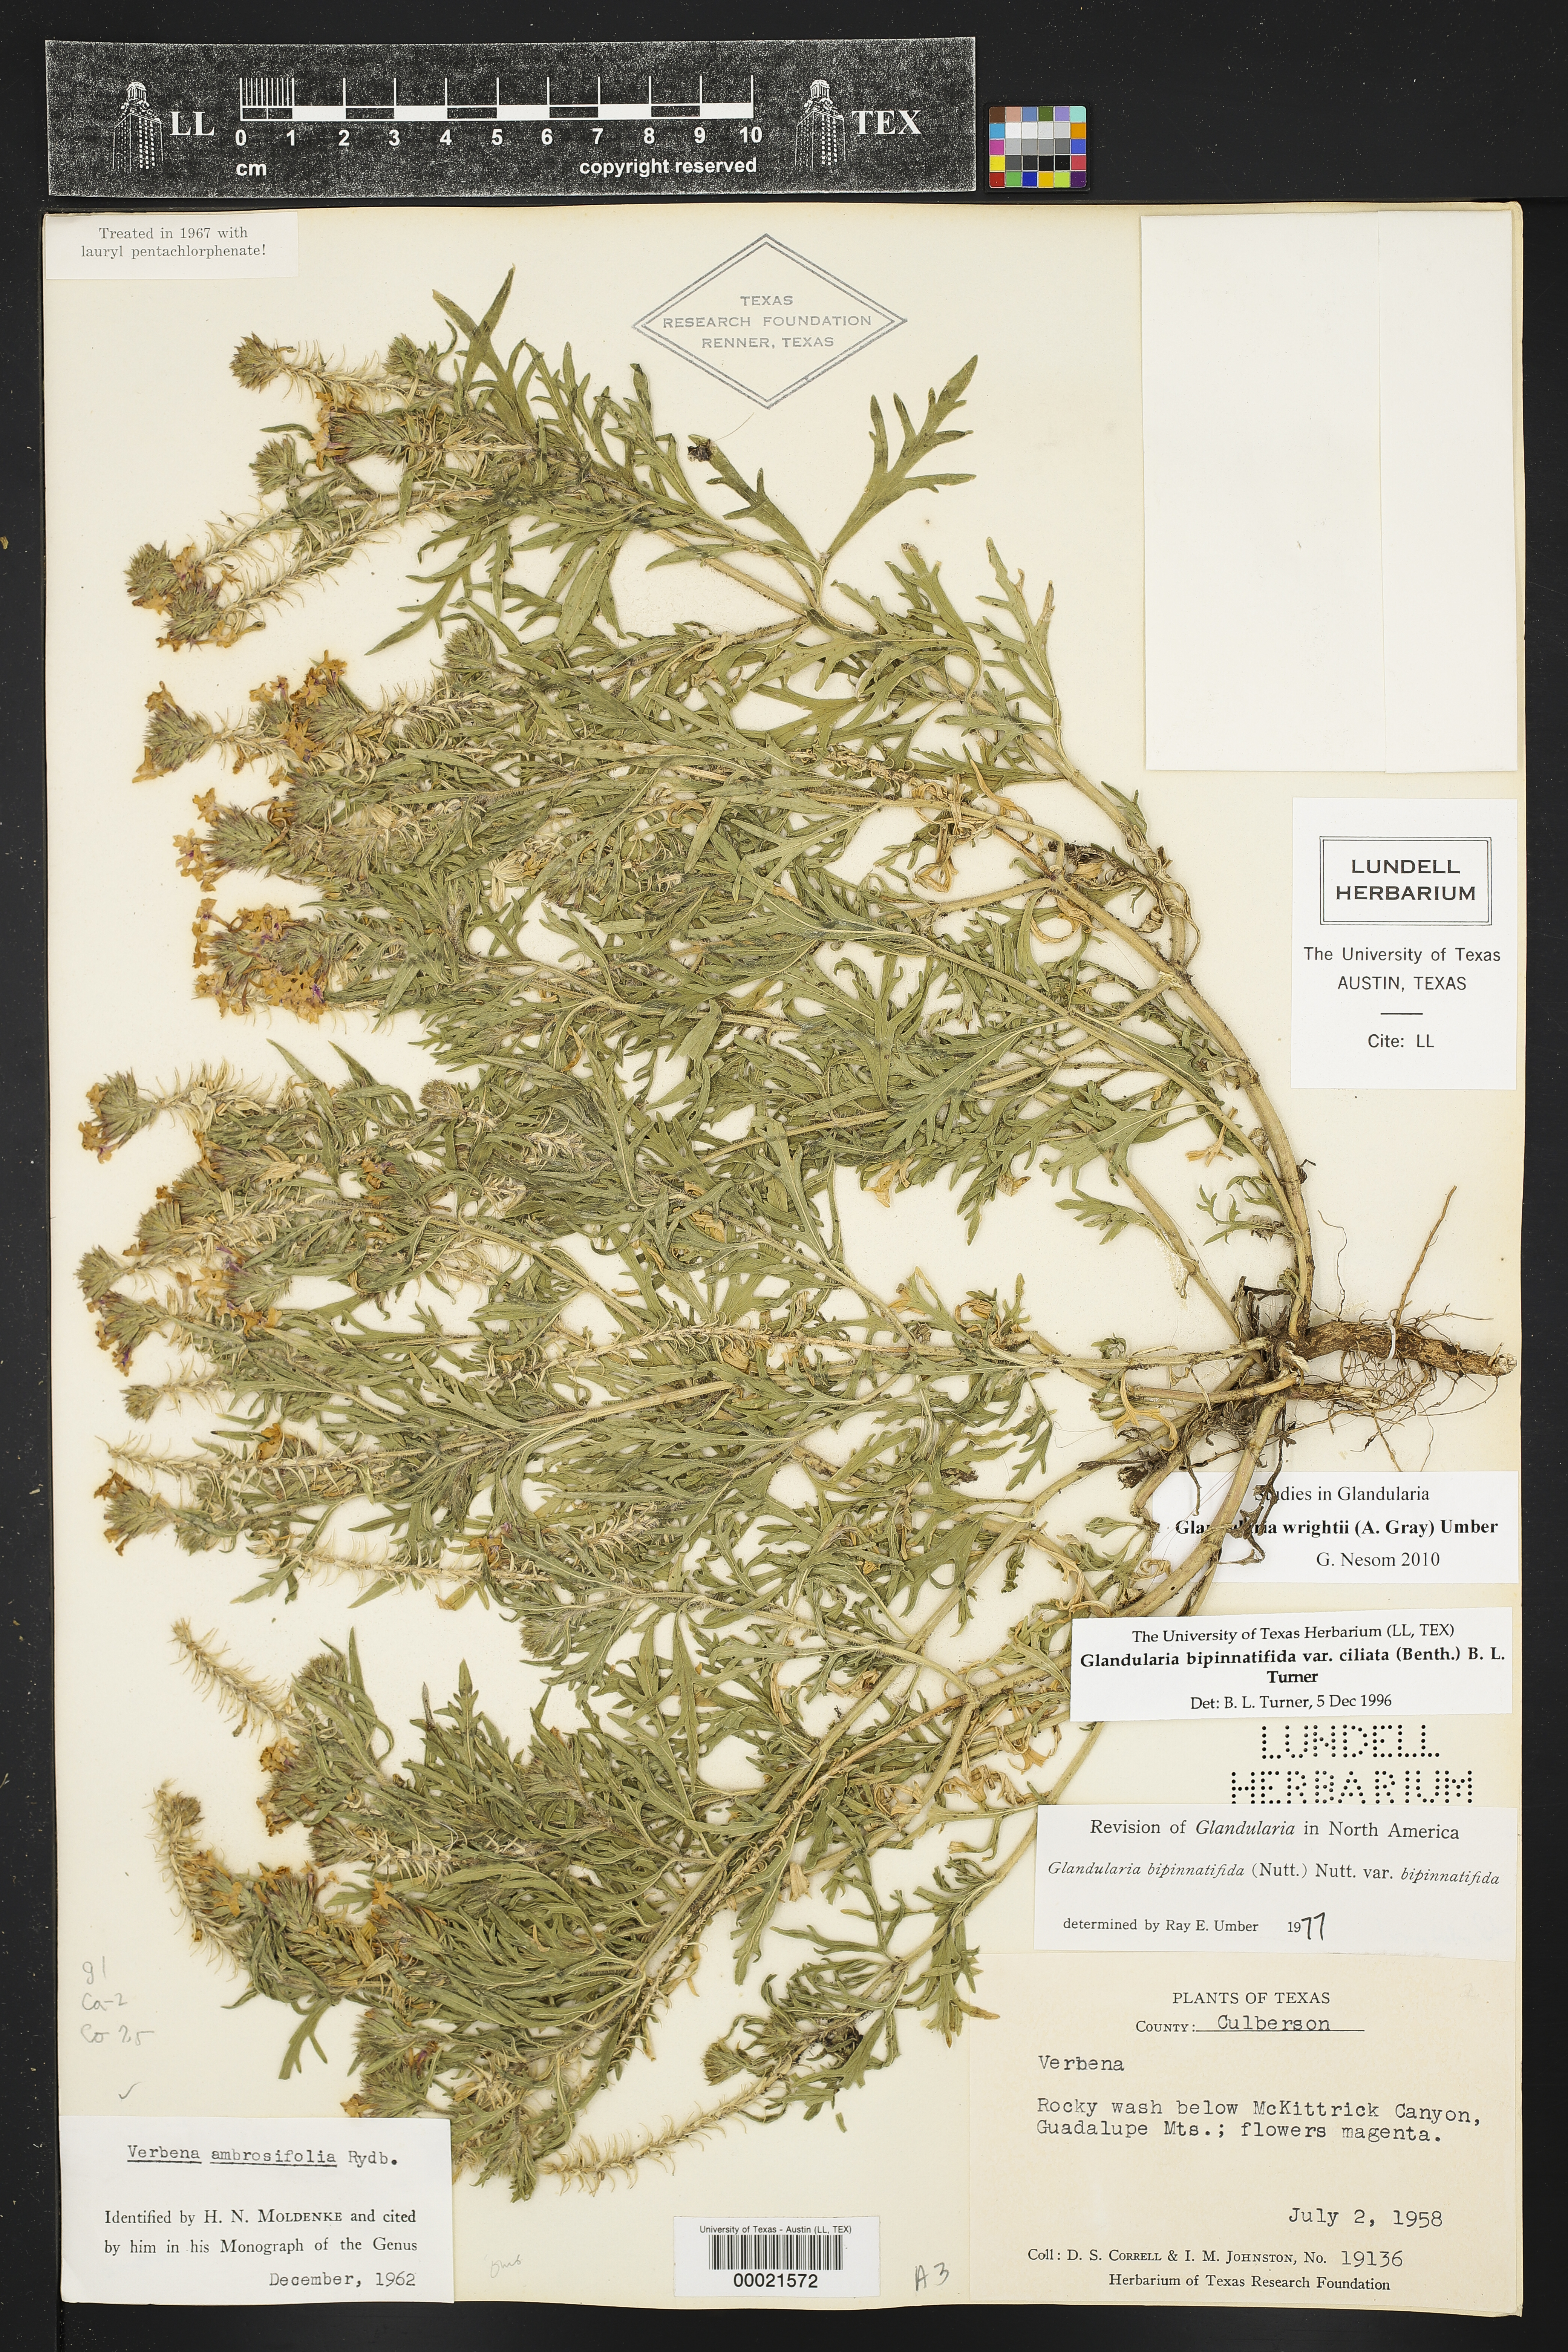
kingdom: Plantae
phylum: Tracheophyta
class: Magnoliopsida
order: Lamiales
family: Verbenaceae
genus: Verbena
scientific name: Verbena bipinnatifida
